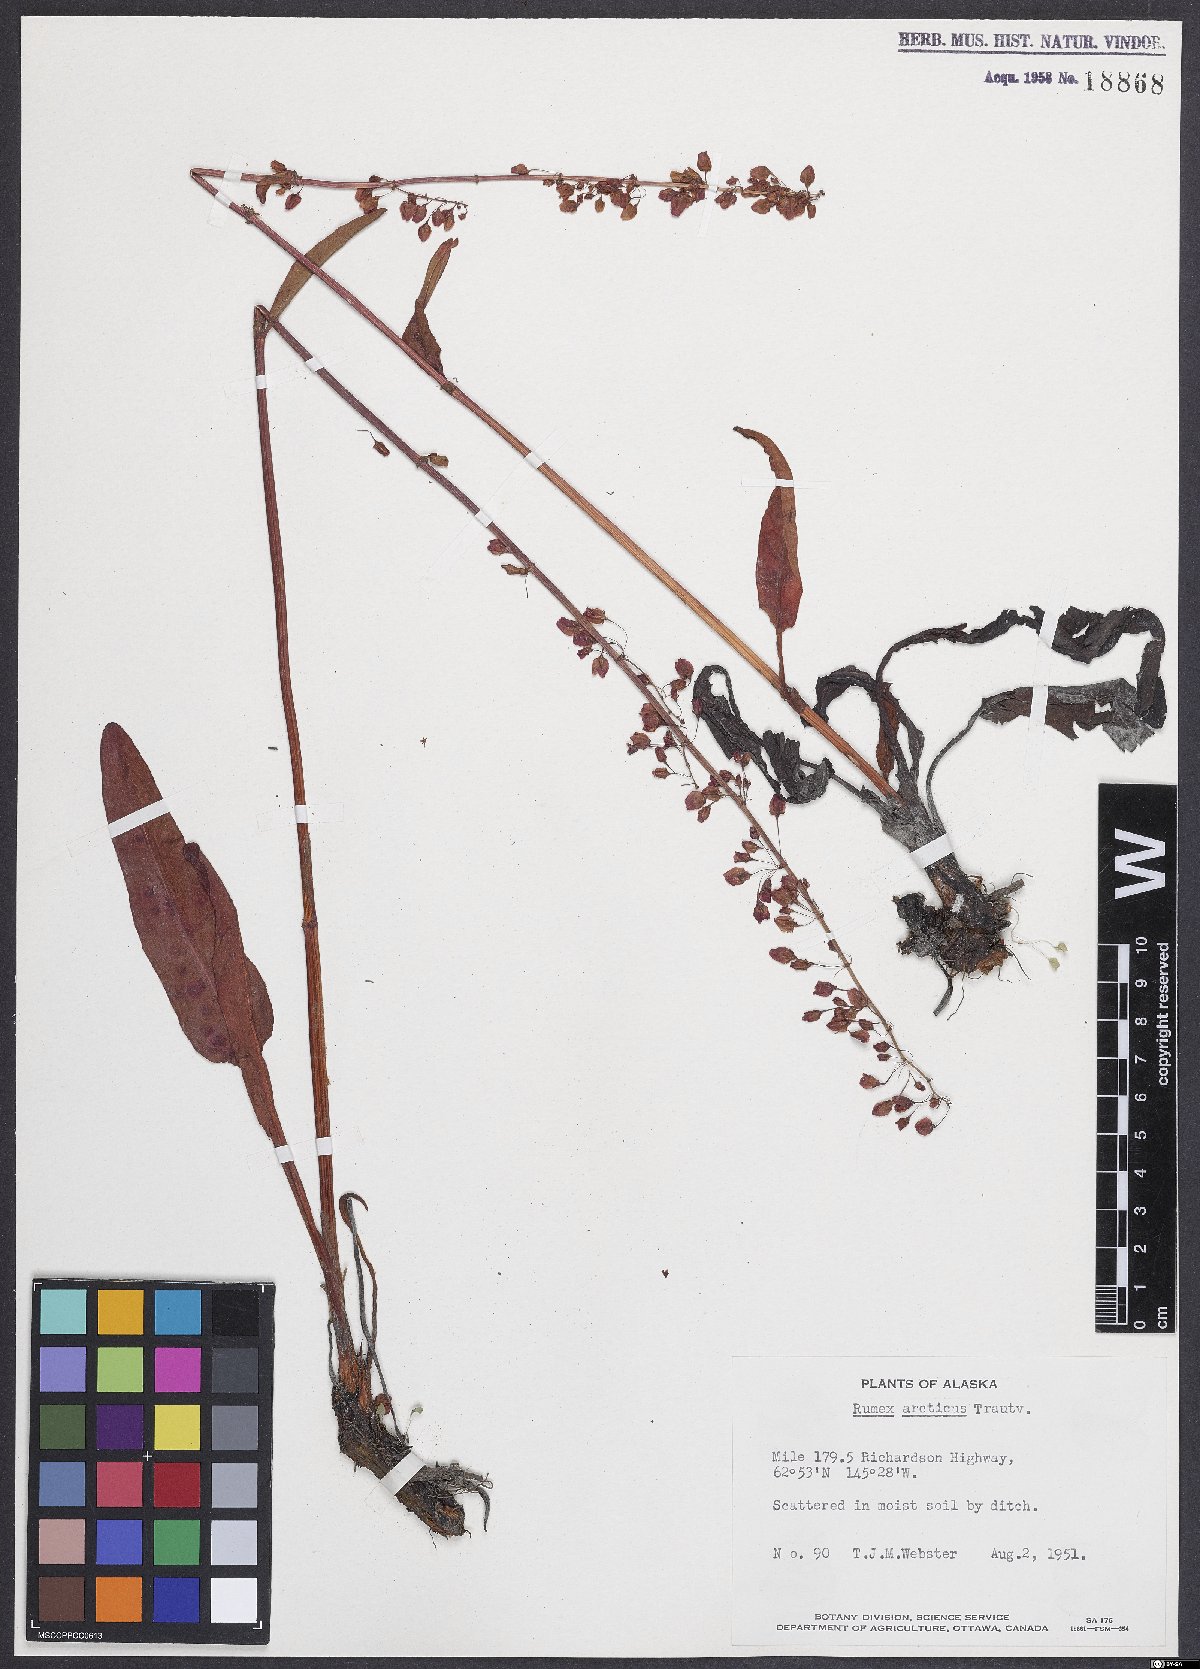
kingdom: Plantae
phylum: Tracheophyta
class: Magnoliopsida
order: Caryophyllales
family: Polygonaceae
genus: Rumex
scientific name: Rumex arcticus
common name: Arctic dock
